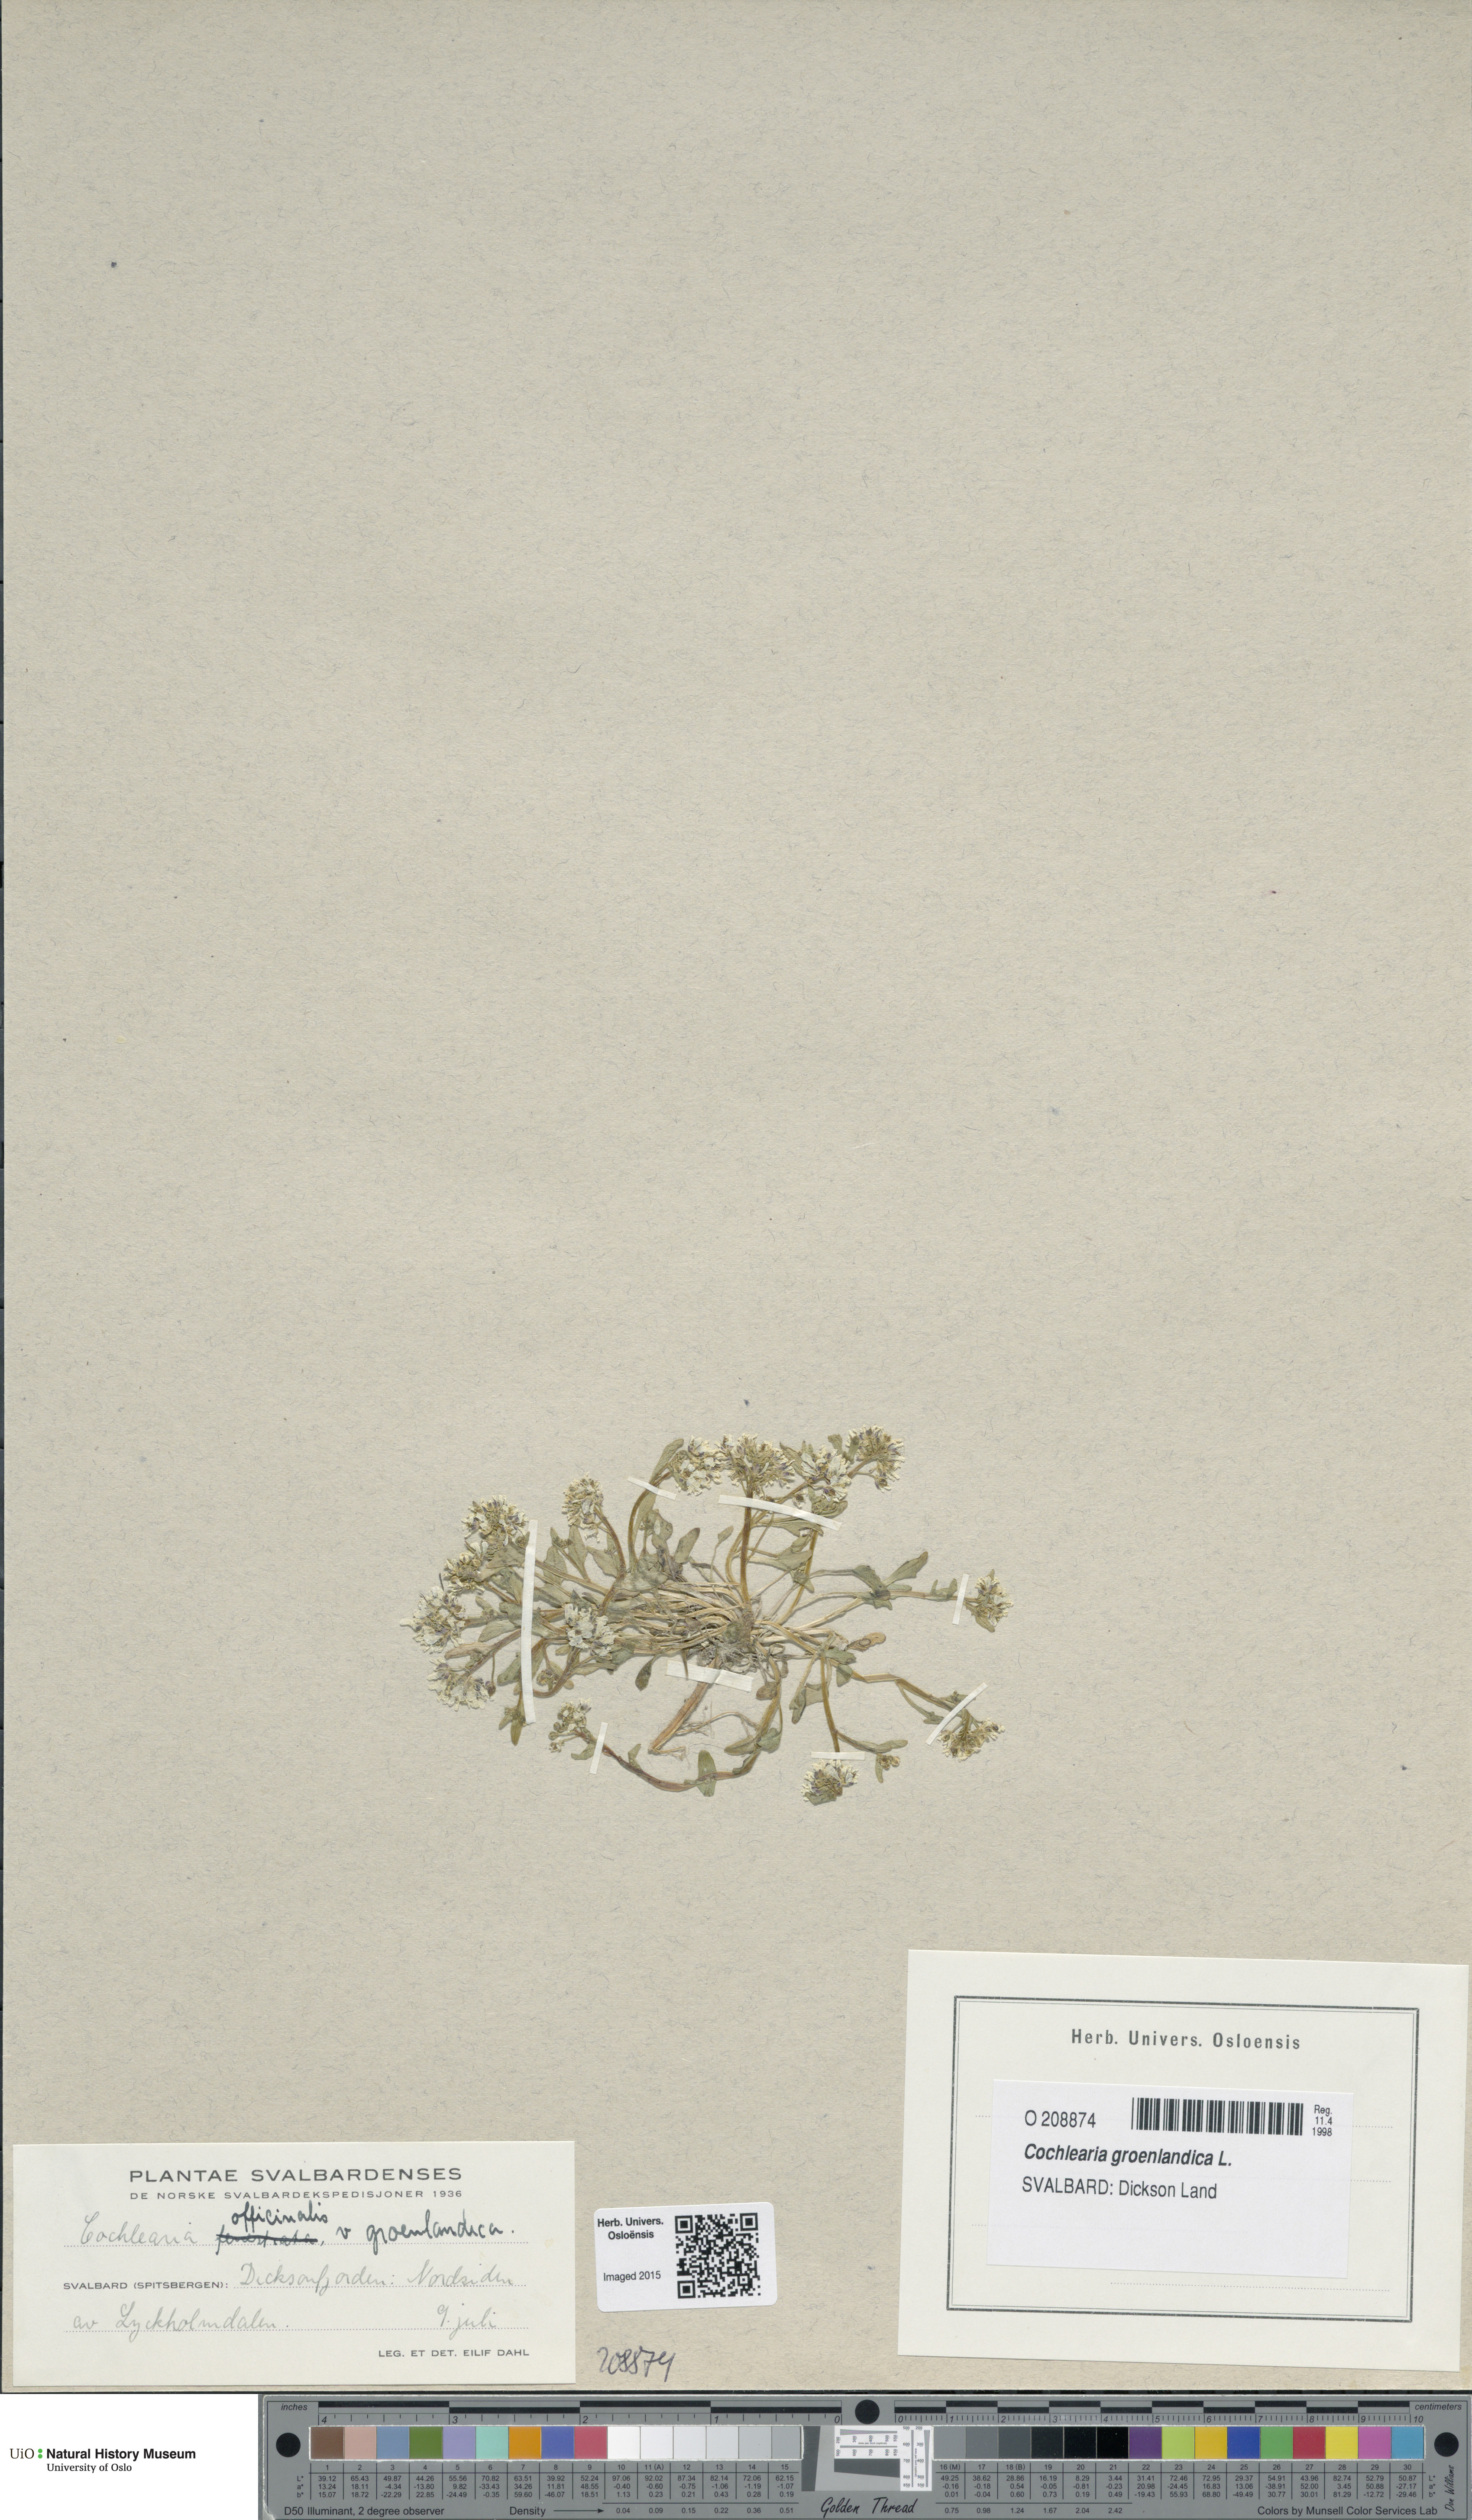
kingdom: Plantae
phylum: Tracheophyta
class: Magnoliopsida
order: Brassicales
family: Brassicaceae
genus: Cochlearia
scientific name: Cochlearia groenlandica
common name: Danish scurvygrass
